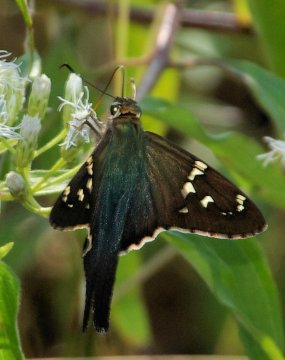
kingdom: Animalia
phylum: Arthropoda
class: Insecta
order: Lepidoptera
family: Hesperiidae
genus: Urbanus
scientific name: Urbanus proteus
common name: Long-tailed Skipper
